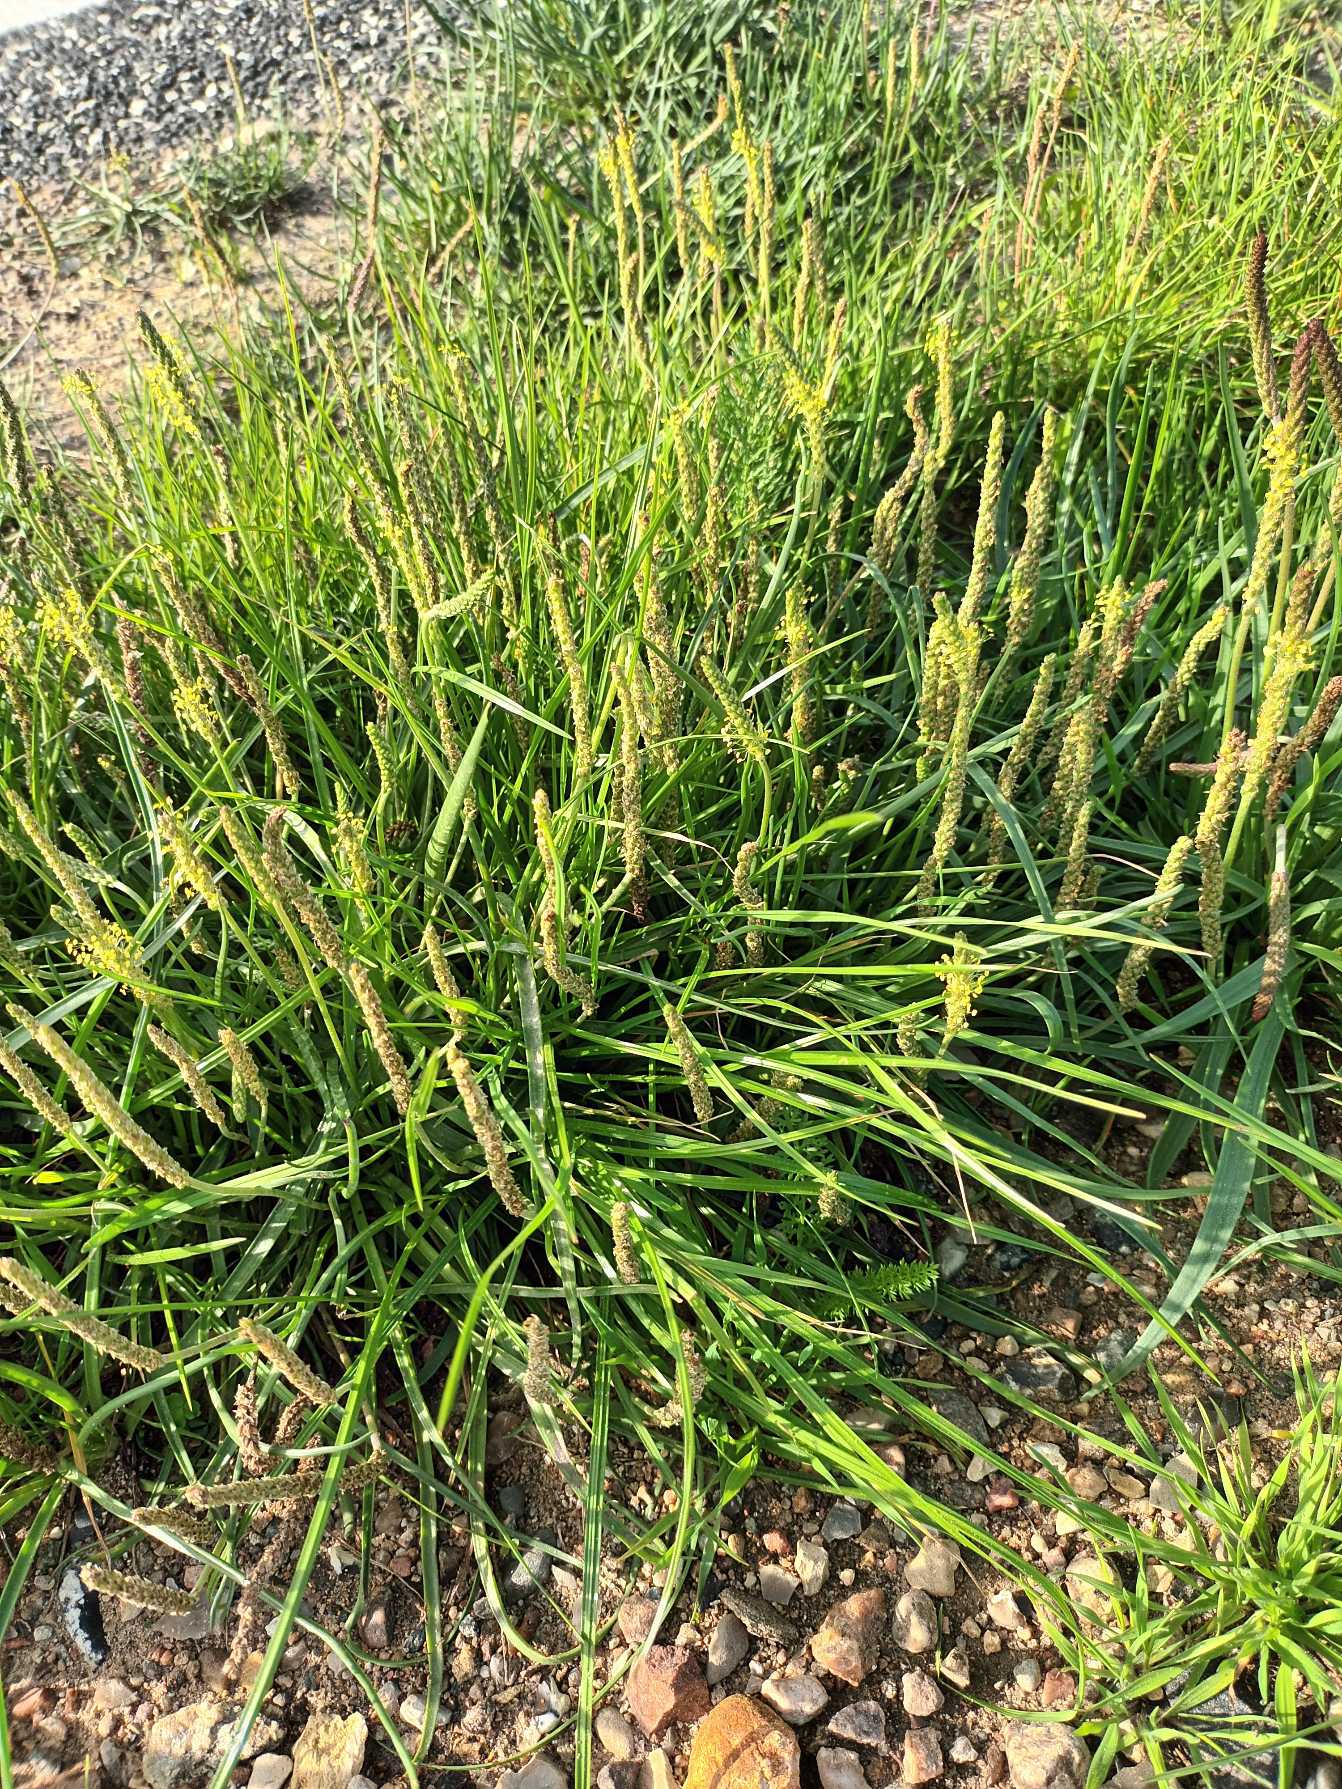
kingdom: Plantae
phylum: Tracheophyta
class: Magnoliopsida
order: Lamiales
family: Plantaginaceae
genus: Plantago
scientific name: Plantago maritima
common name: Strand-vejbred
